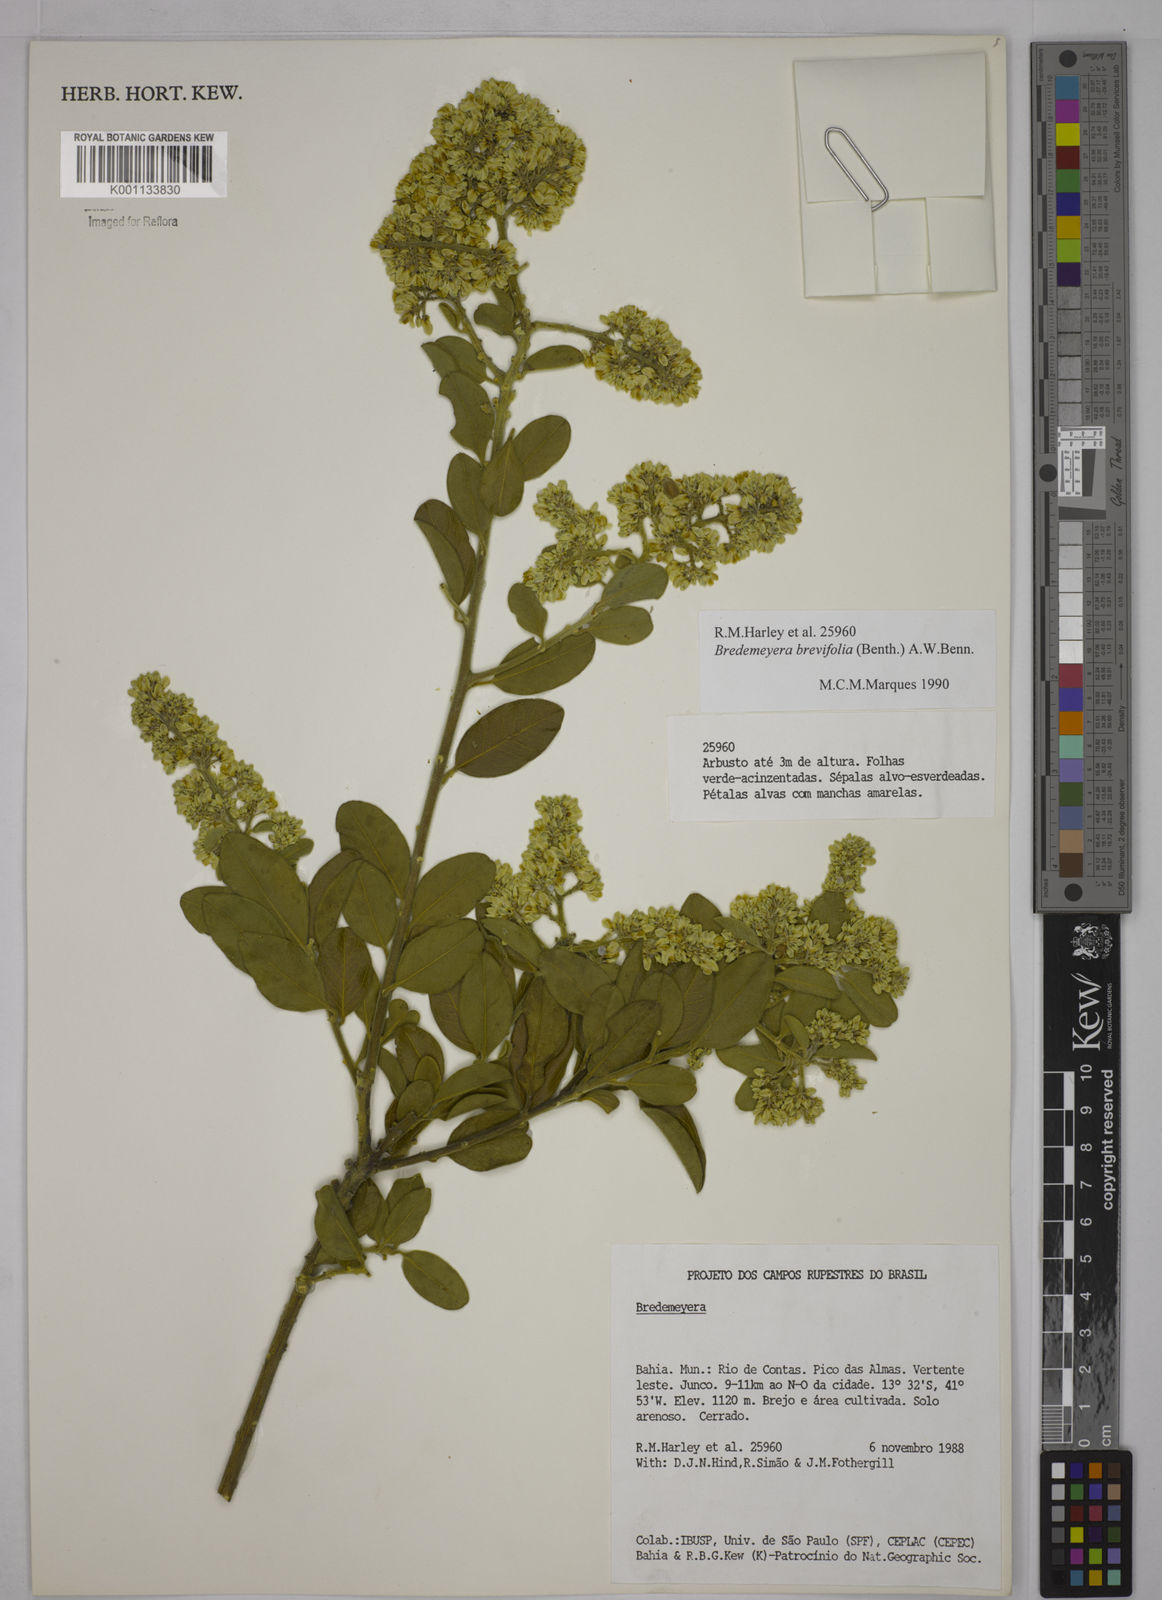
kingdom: Plantae
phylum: Tracheophyta
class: Magnoliopsida
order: Fabales
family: Polygalaceae
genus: Bredemeyera
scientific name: Bredemeyera brevifolia
